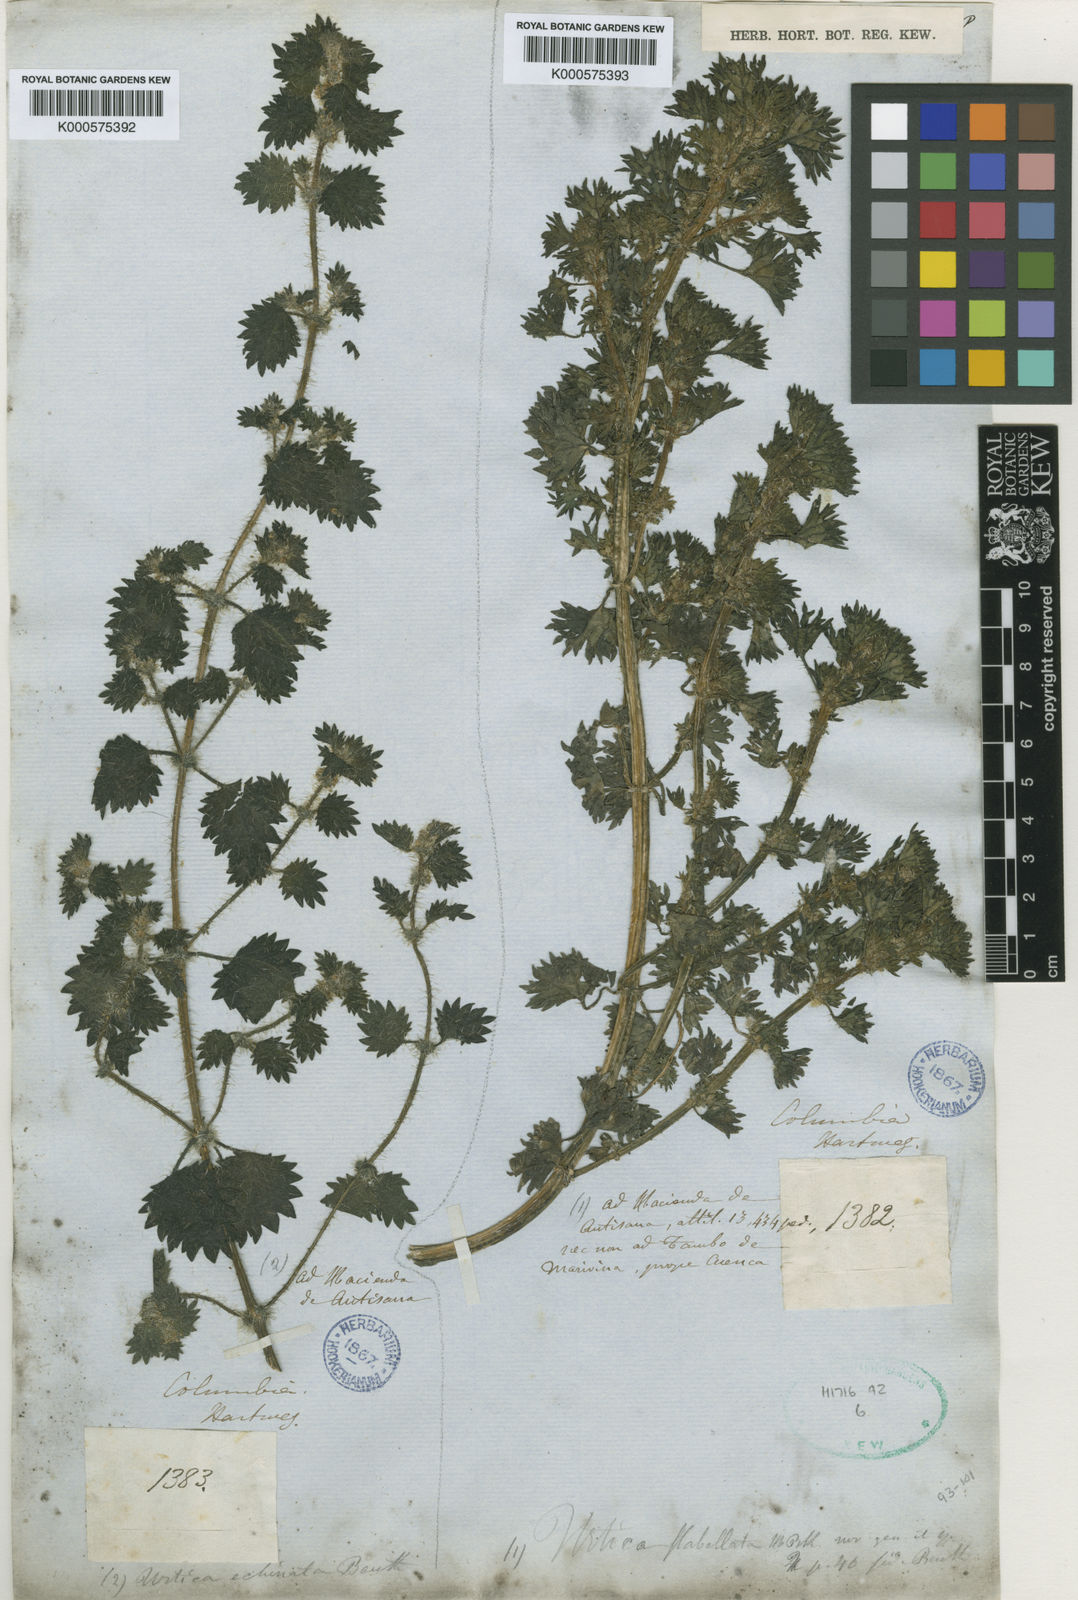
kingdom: Plantae
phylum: Tracheophyta
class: Magnoliopsida
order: Rosales
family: Urticaceae
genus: Urtica
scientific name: Urtica echinata
